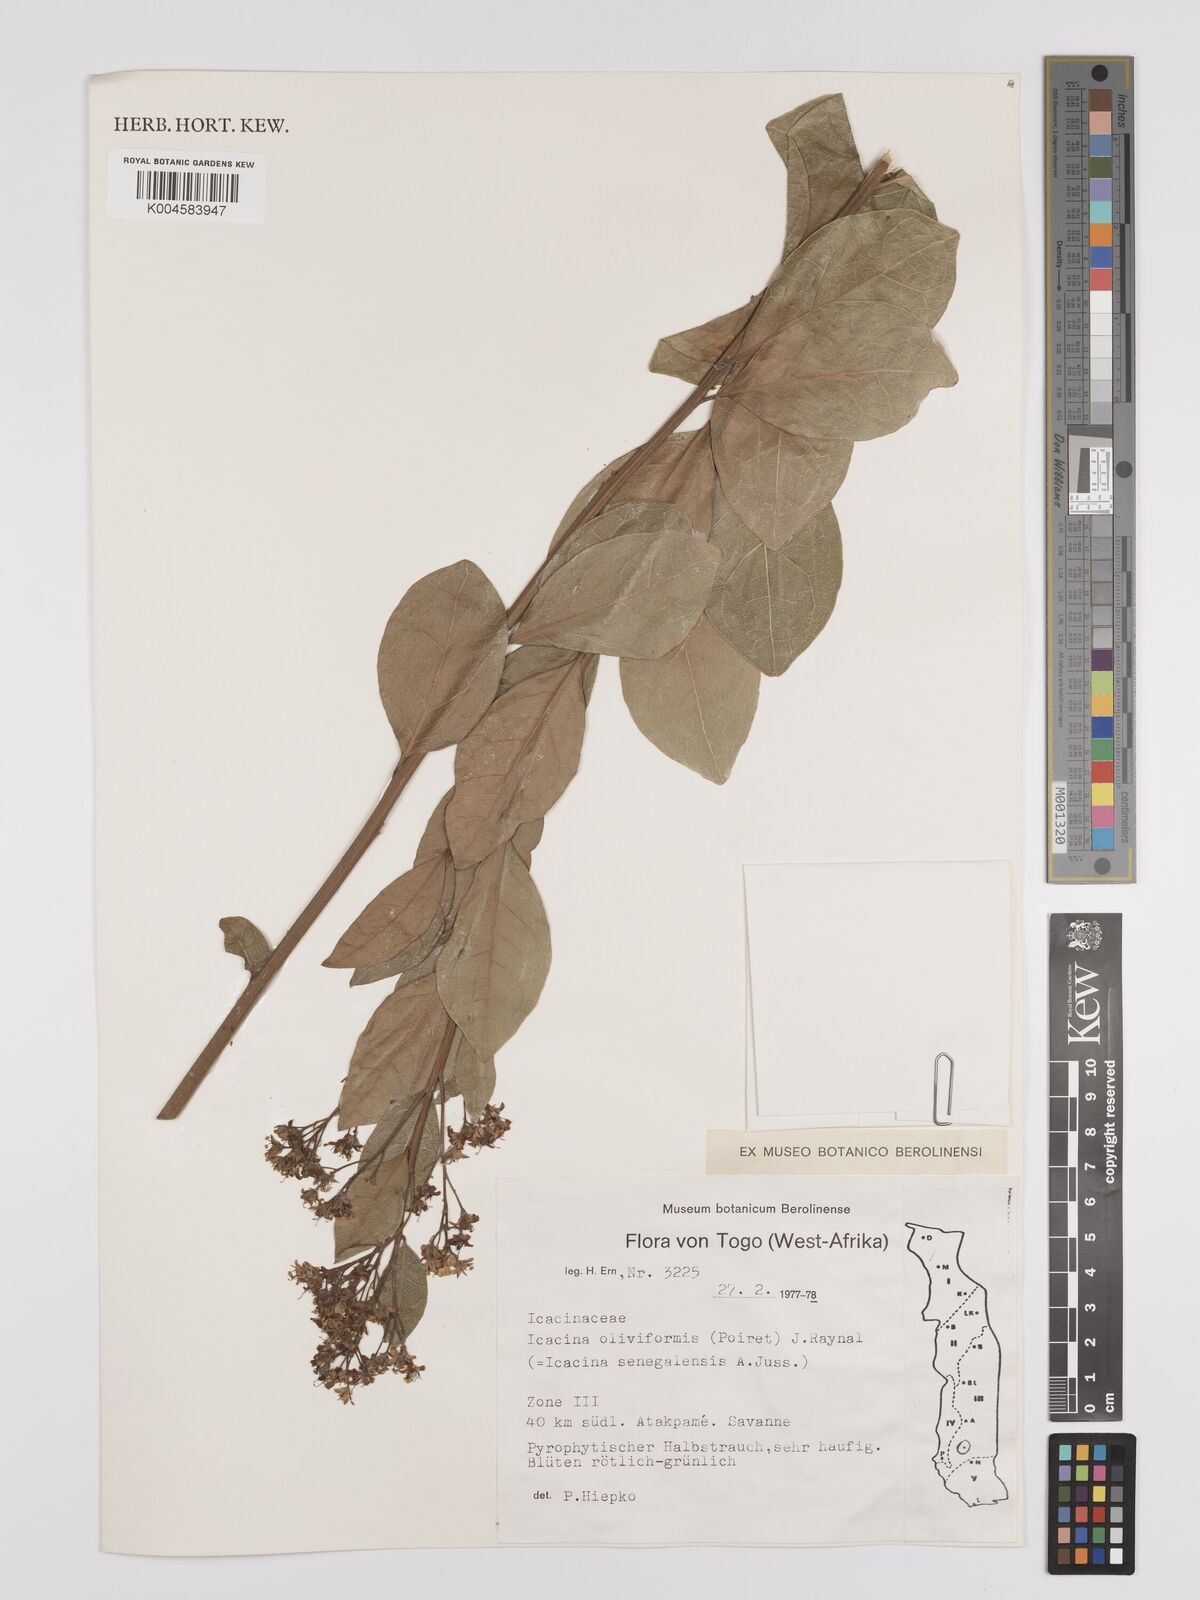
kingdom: Plantae
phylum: Tracheophyta
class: Magnoliopsida
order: Icacinales
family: Icacinaceae
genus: Icacina
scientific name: Icacina oliviformis
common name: False yam
